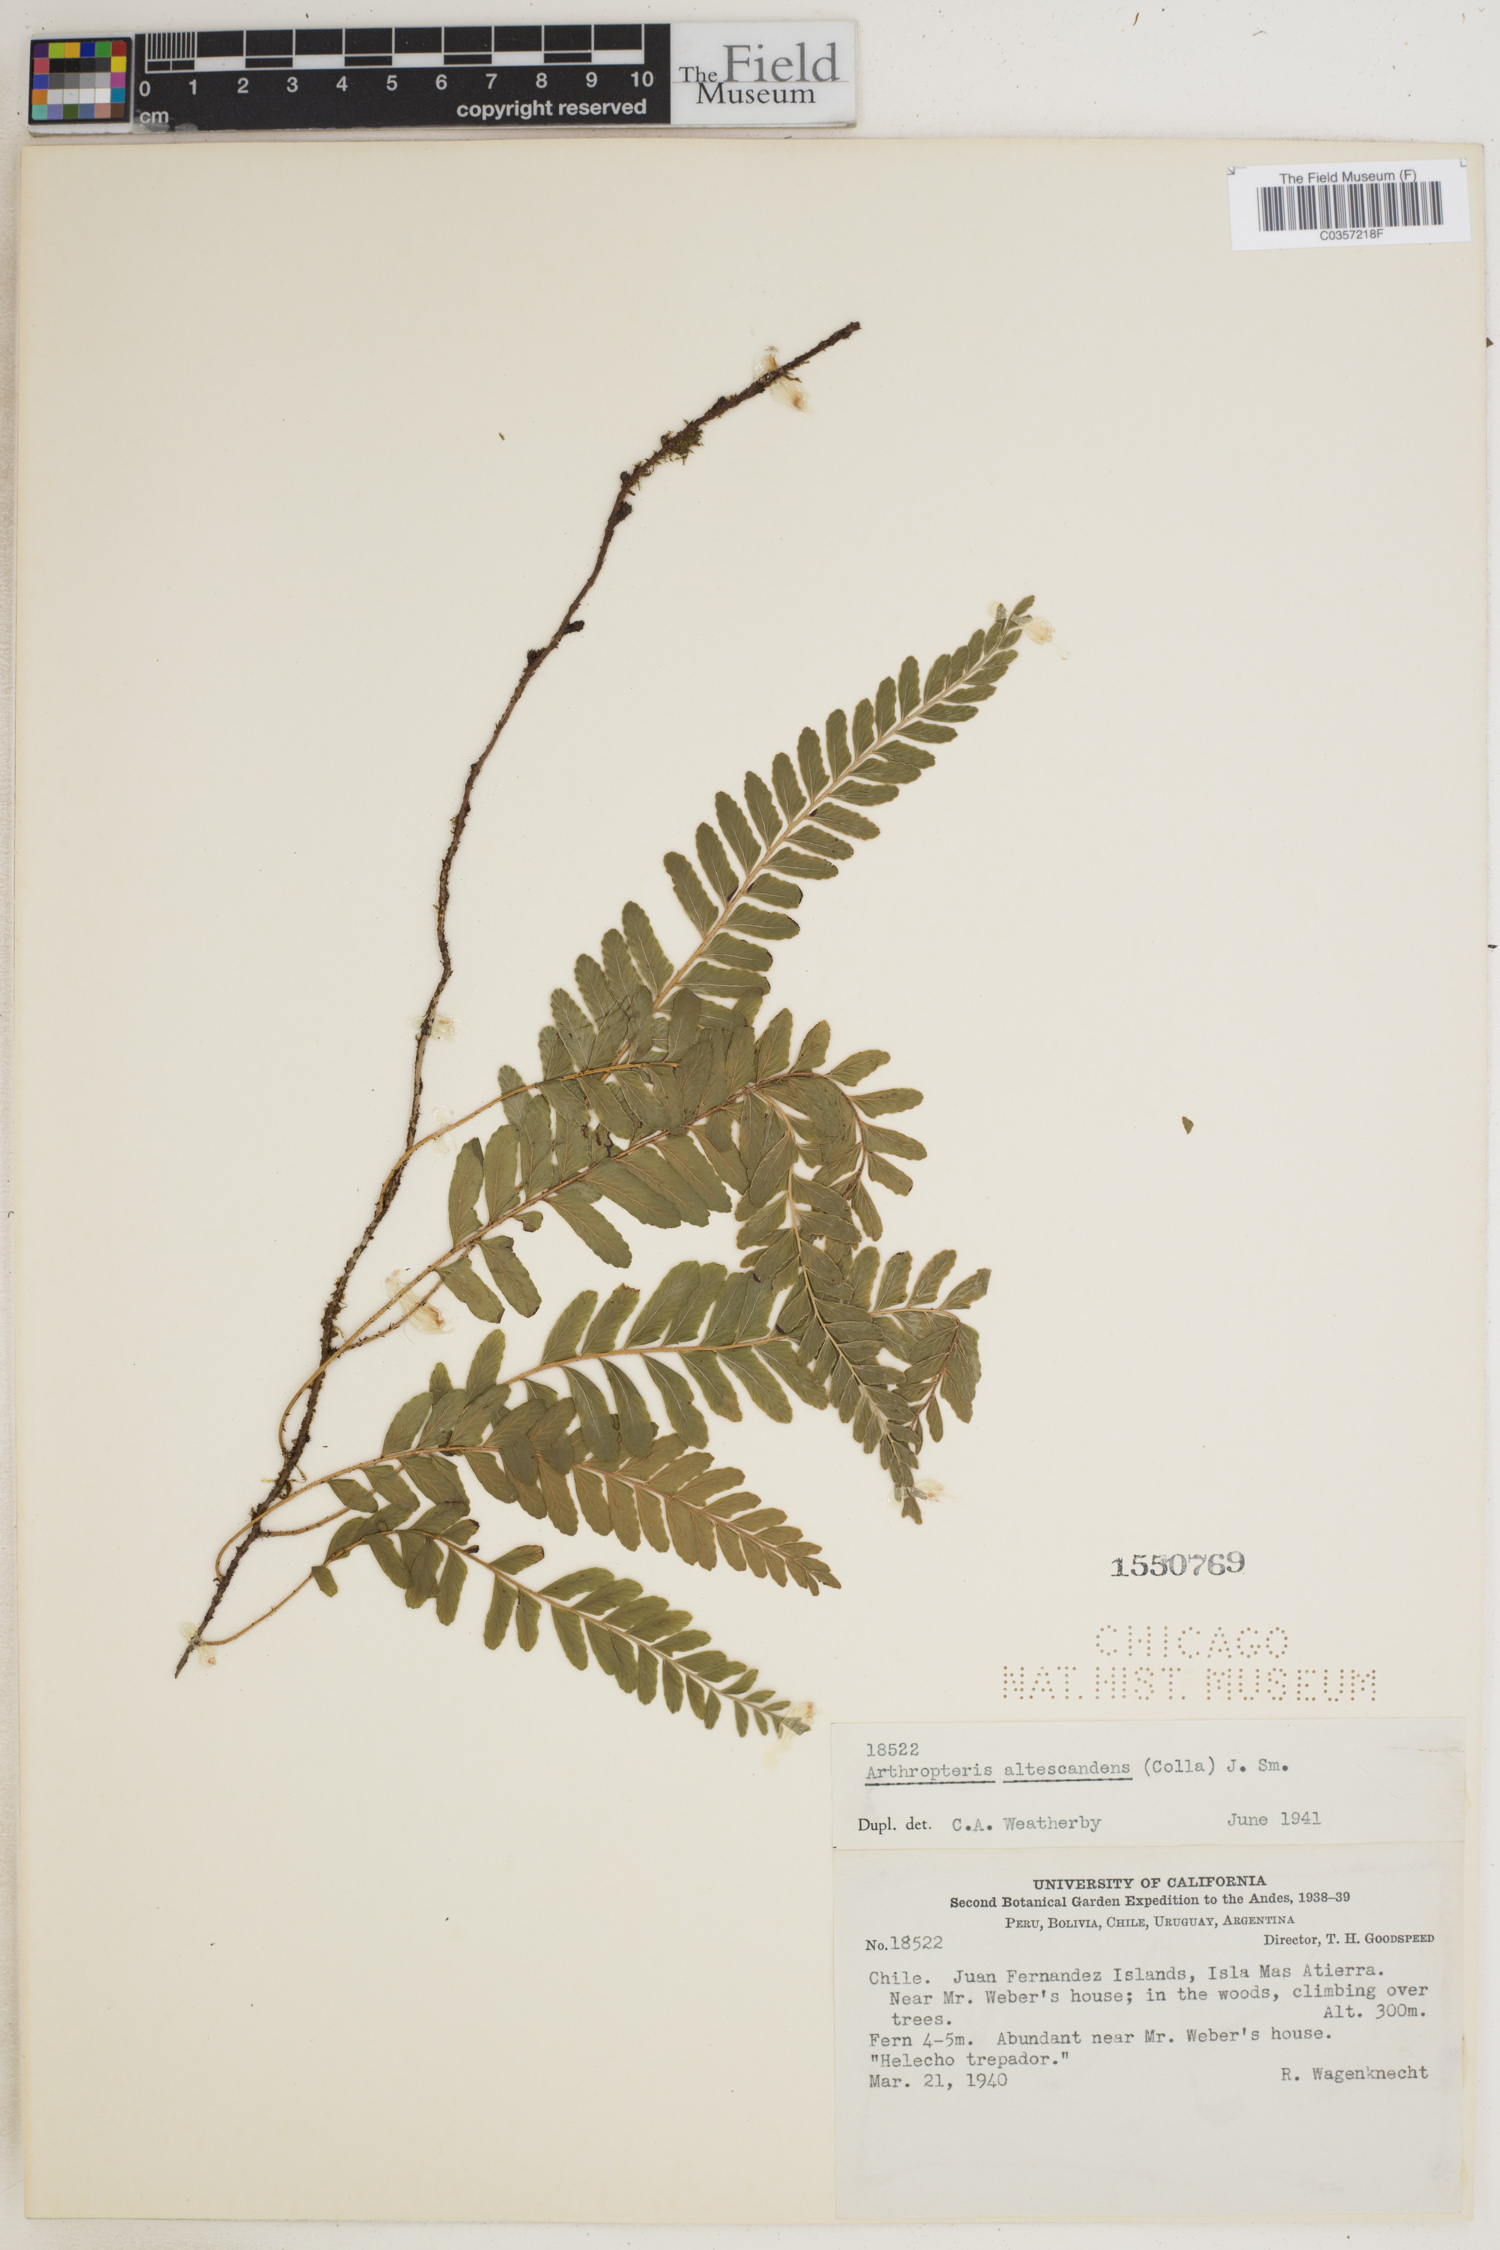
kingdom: Plantae
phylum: Tracheophyta
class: Polypodiopsida
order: Polypodiales
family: Tectariaceae
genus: Arthropteris
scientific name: Arthropteris altescandens
